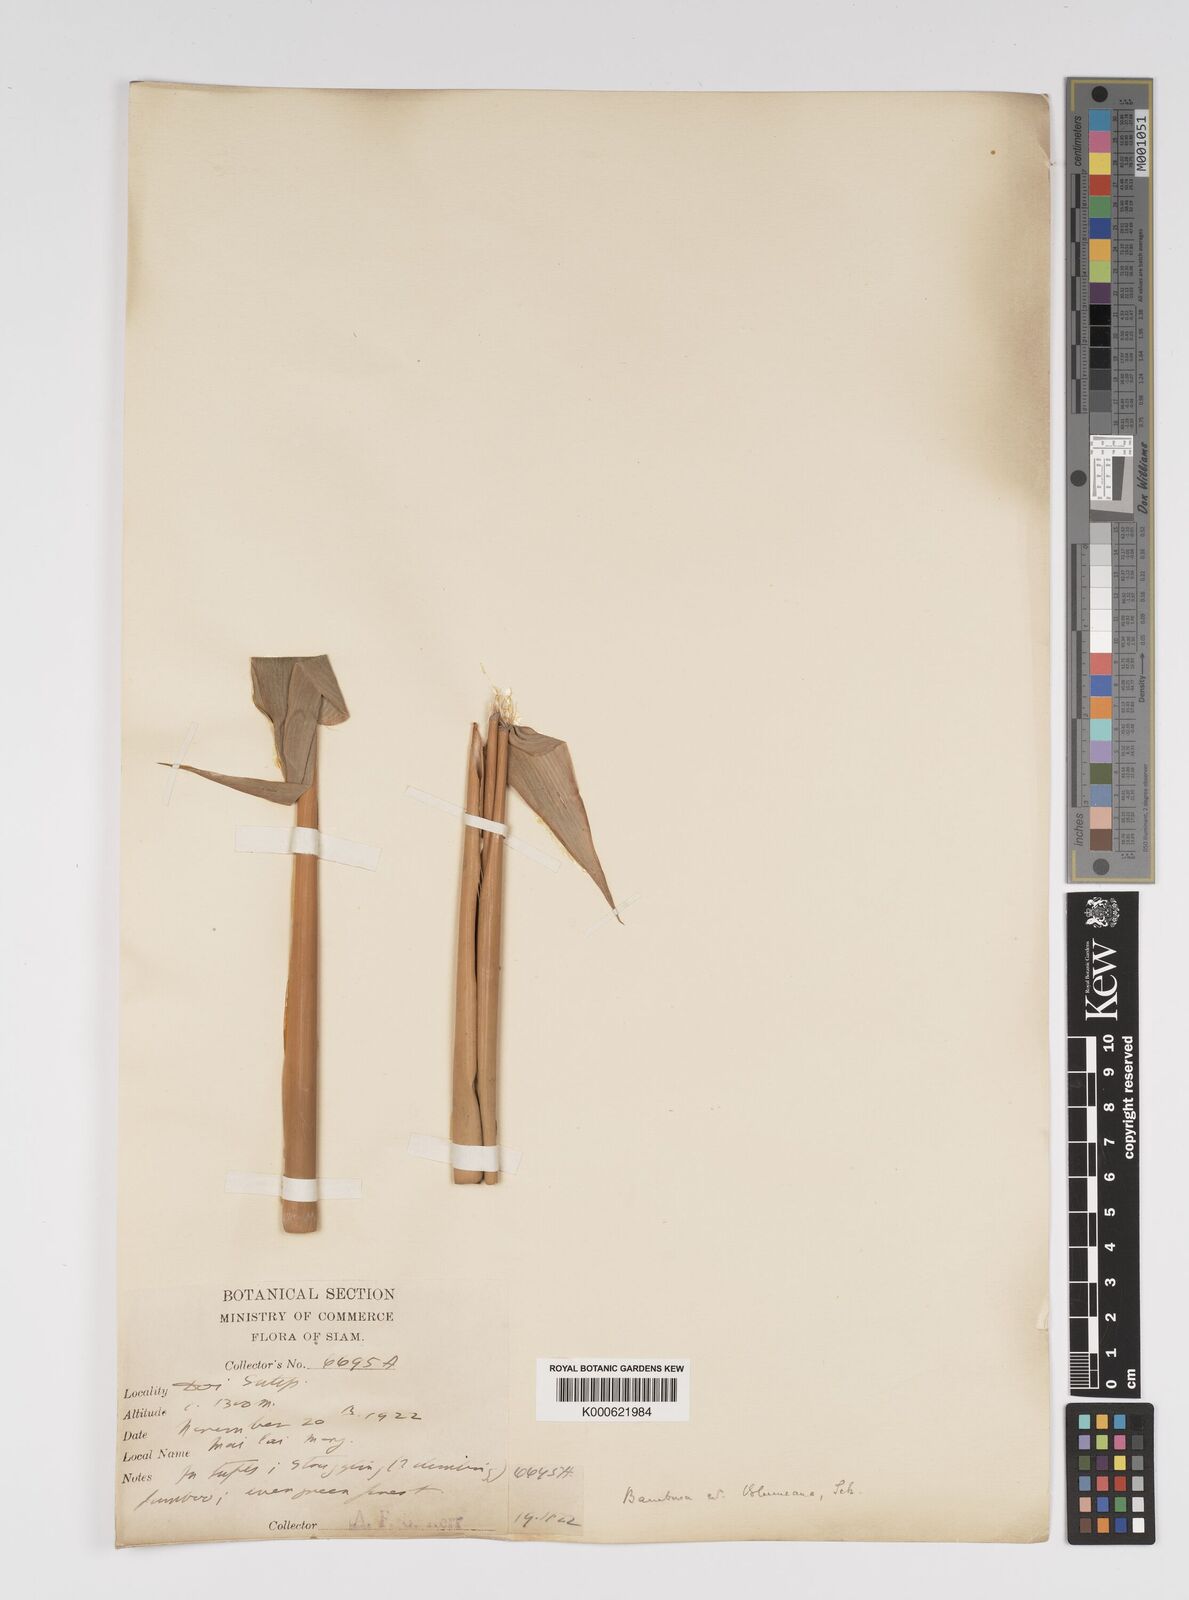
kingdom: Plantae
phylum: Tracheophyta
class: Liliopsida
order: Poales
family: Poaceae
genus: Bambusa
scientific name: Bambusa
